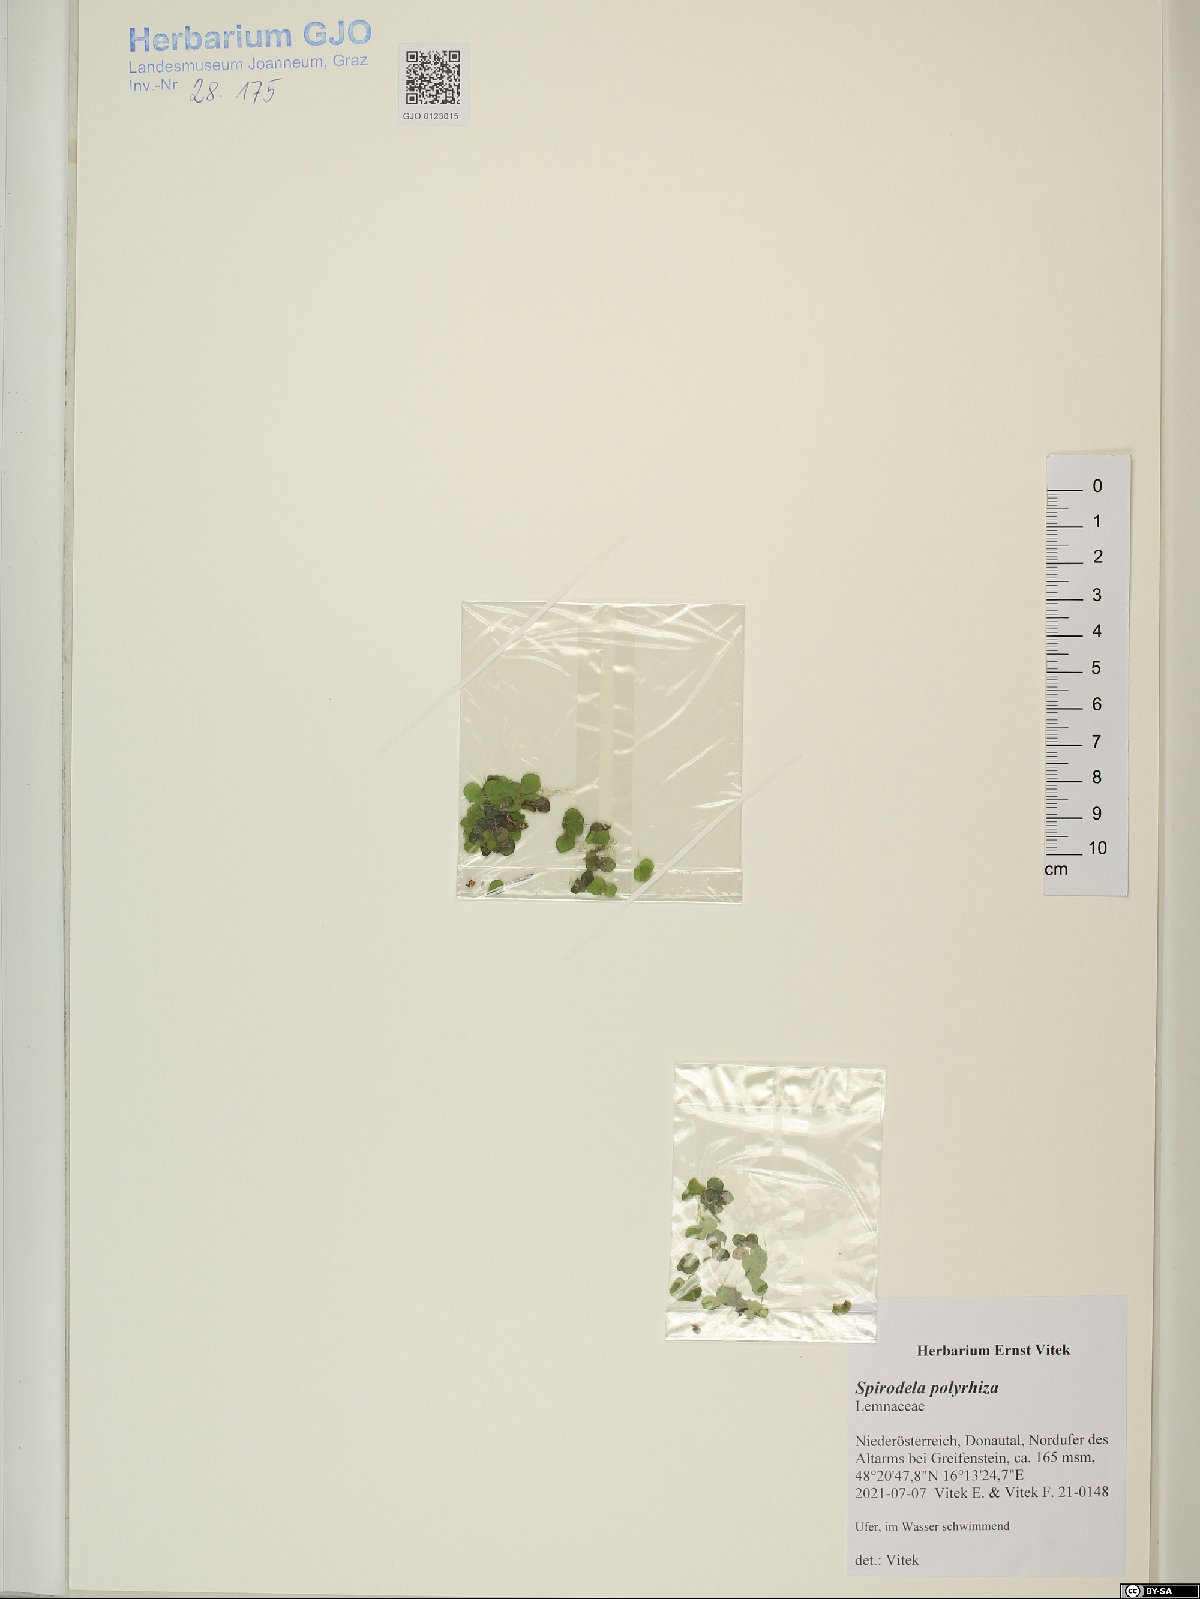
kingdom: Plantae
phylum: Tracheophyta
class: Liliopsida
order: Alismatales
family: Araceae
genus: Spirodela
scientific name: Spirodela polyrhiza
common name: Great duckweed
